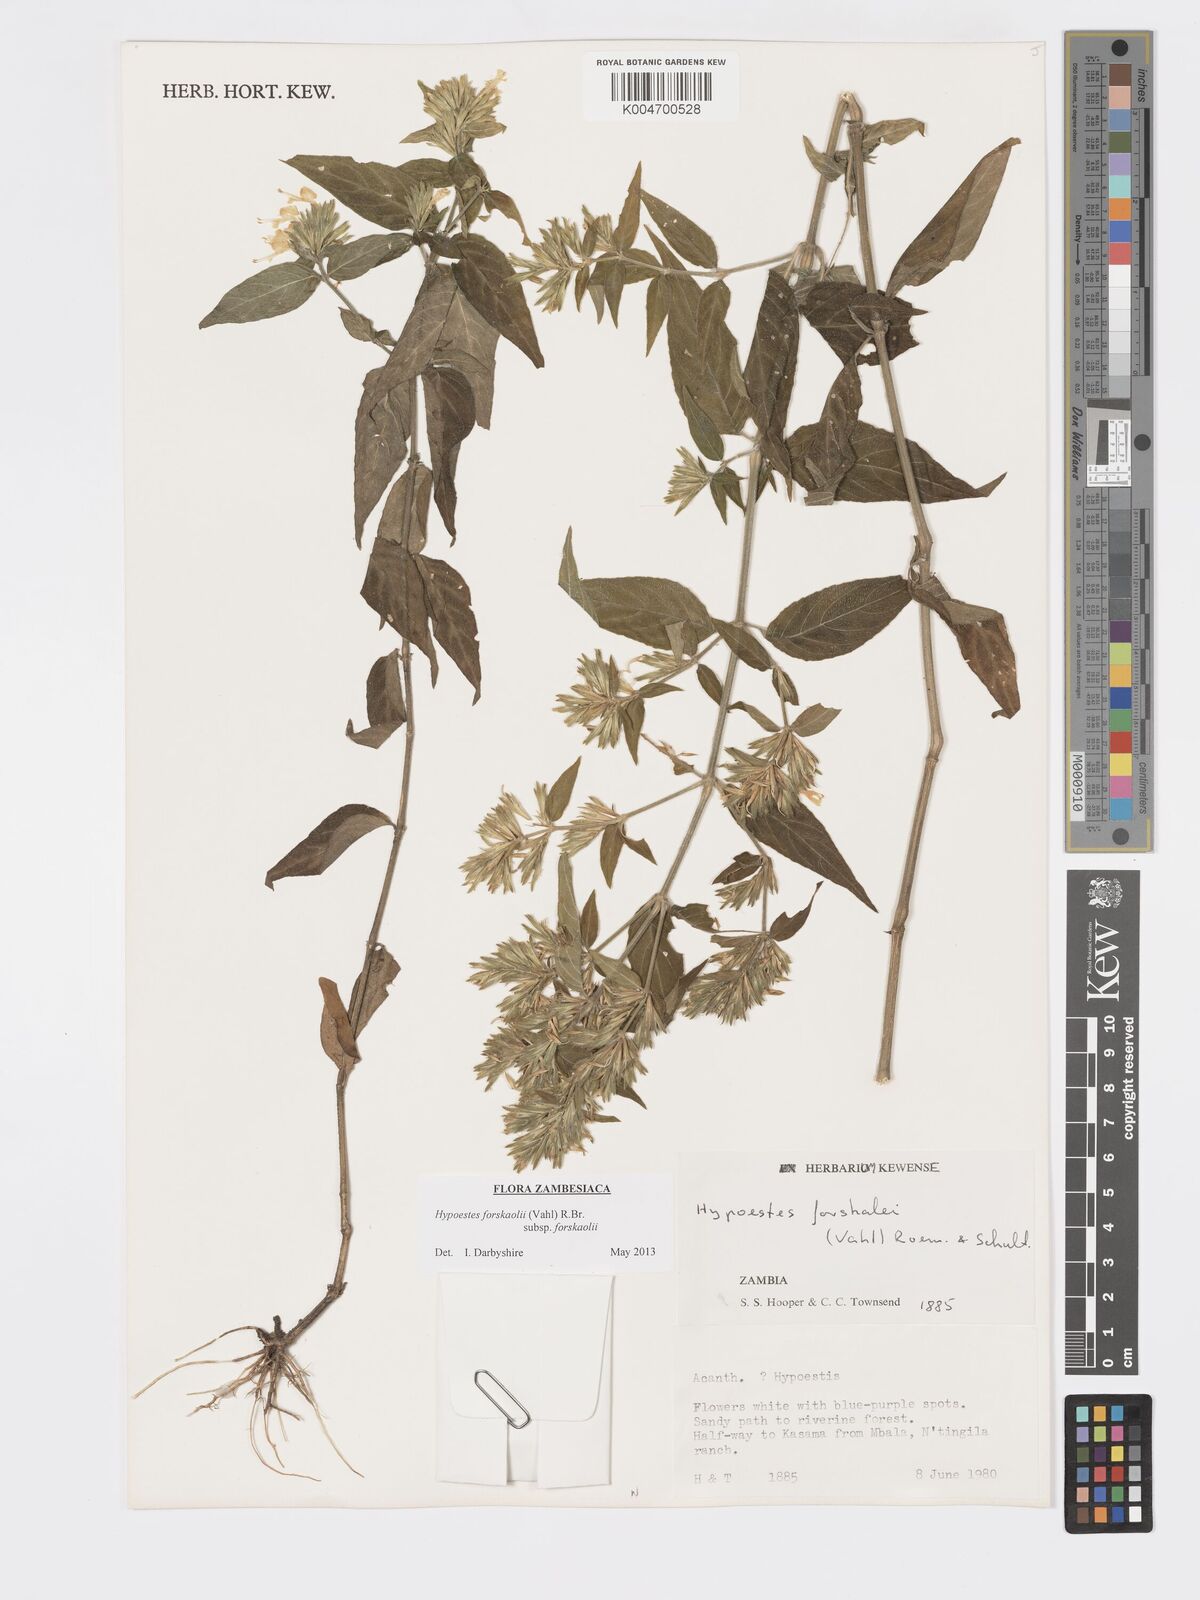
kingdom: Plantae
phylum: Tracheophyta
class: Magnoliopsida
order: Lamiales
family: Acanthaceae
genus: Hypoestes
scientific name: Hypoestes forskaolii
